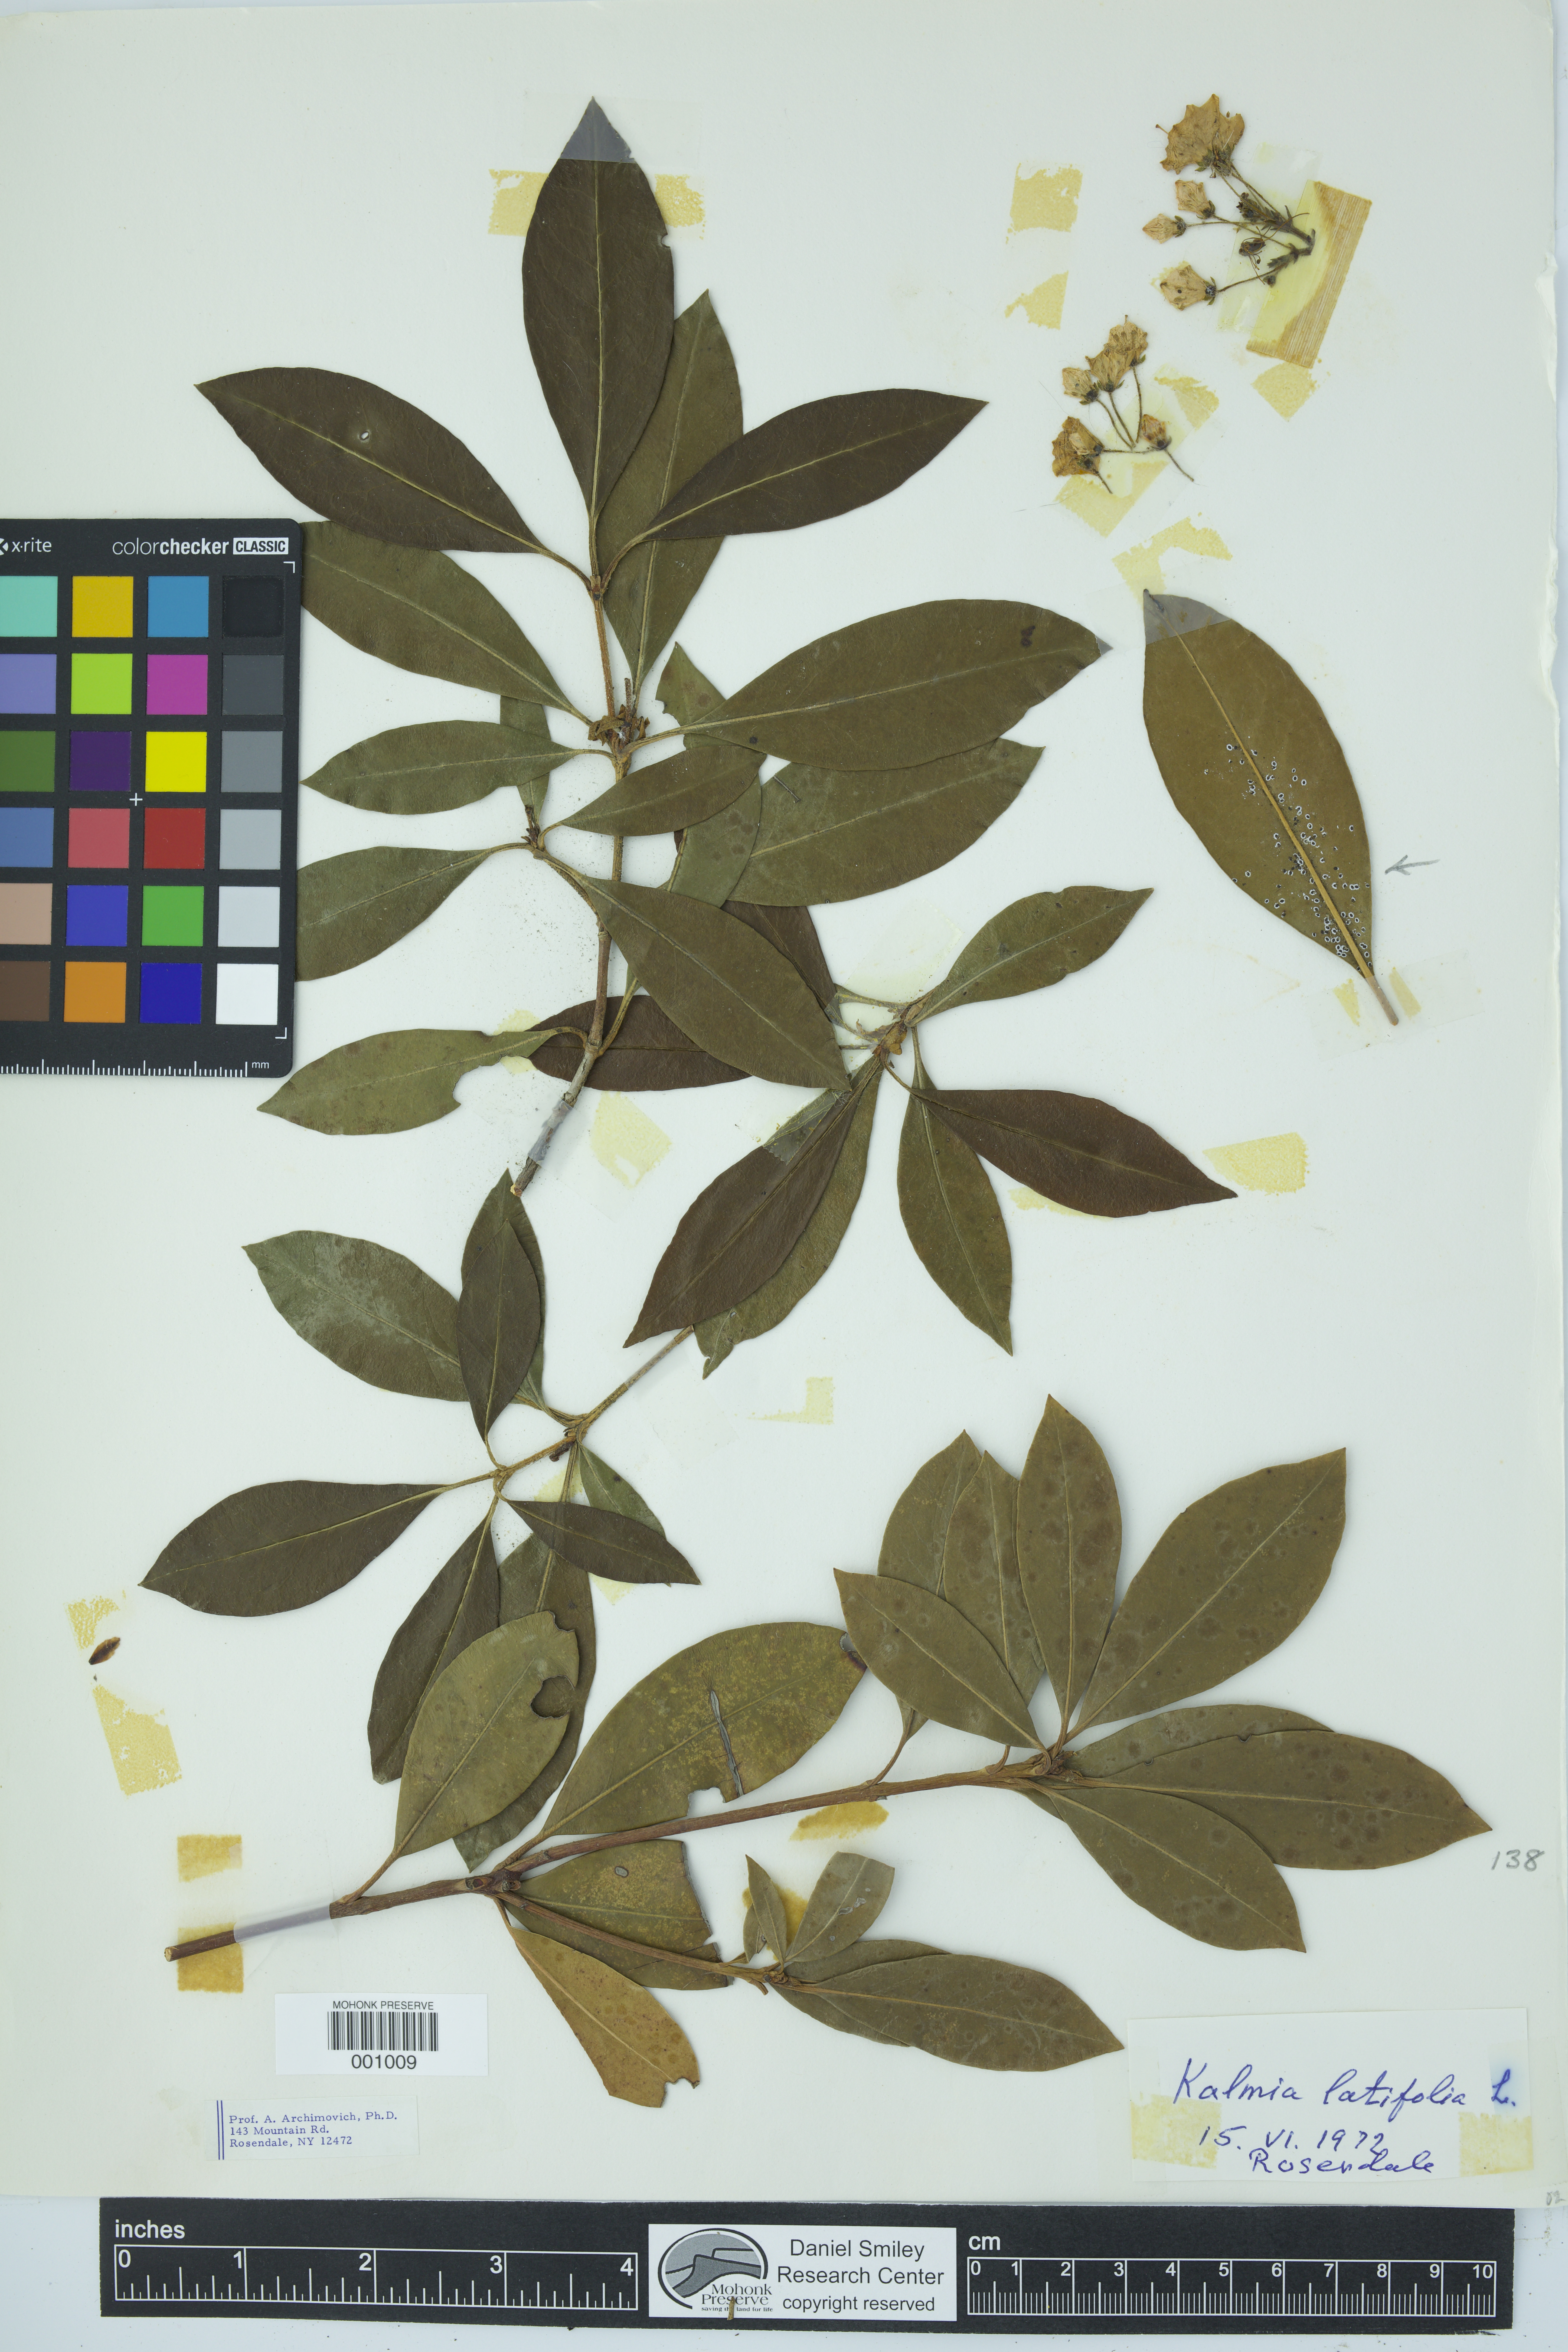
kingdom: Plantae
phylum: Tracheophyta
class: Magnoliopsida
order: Ericales
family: Ericaceae
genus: Kalmia
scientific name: Kalmia latifolia
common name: Mountain-laurel
